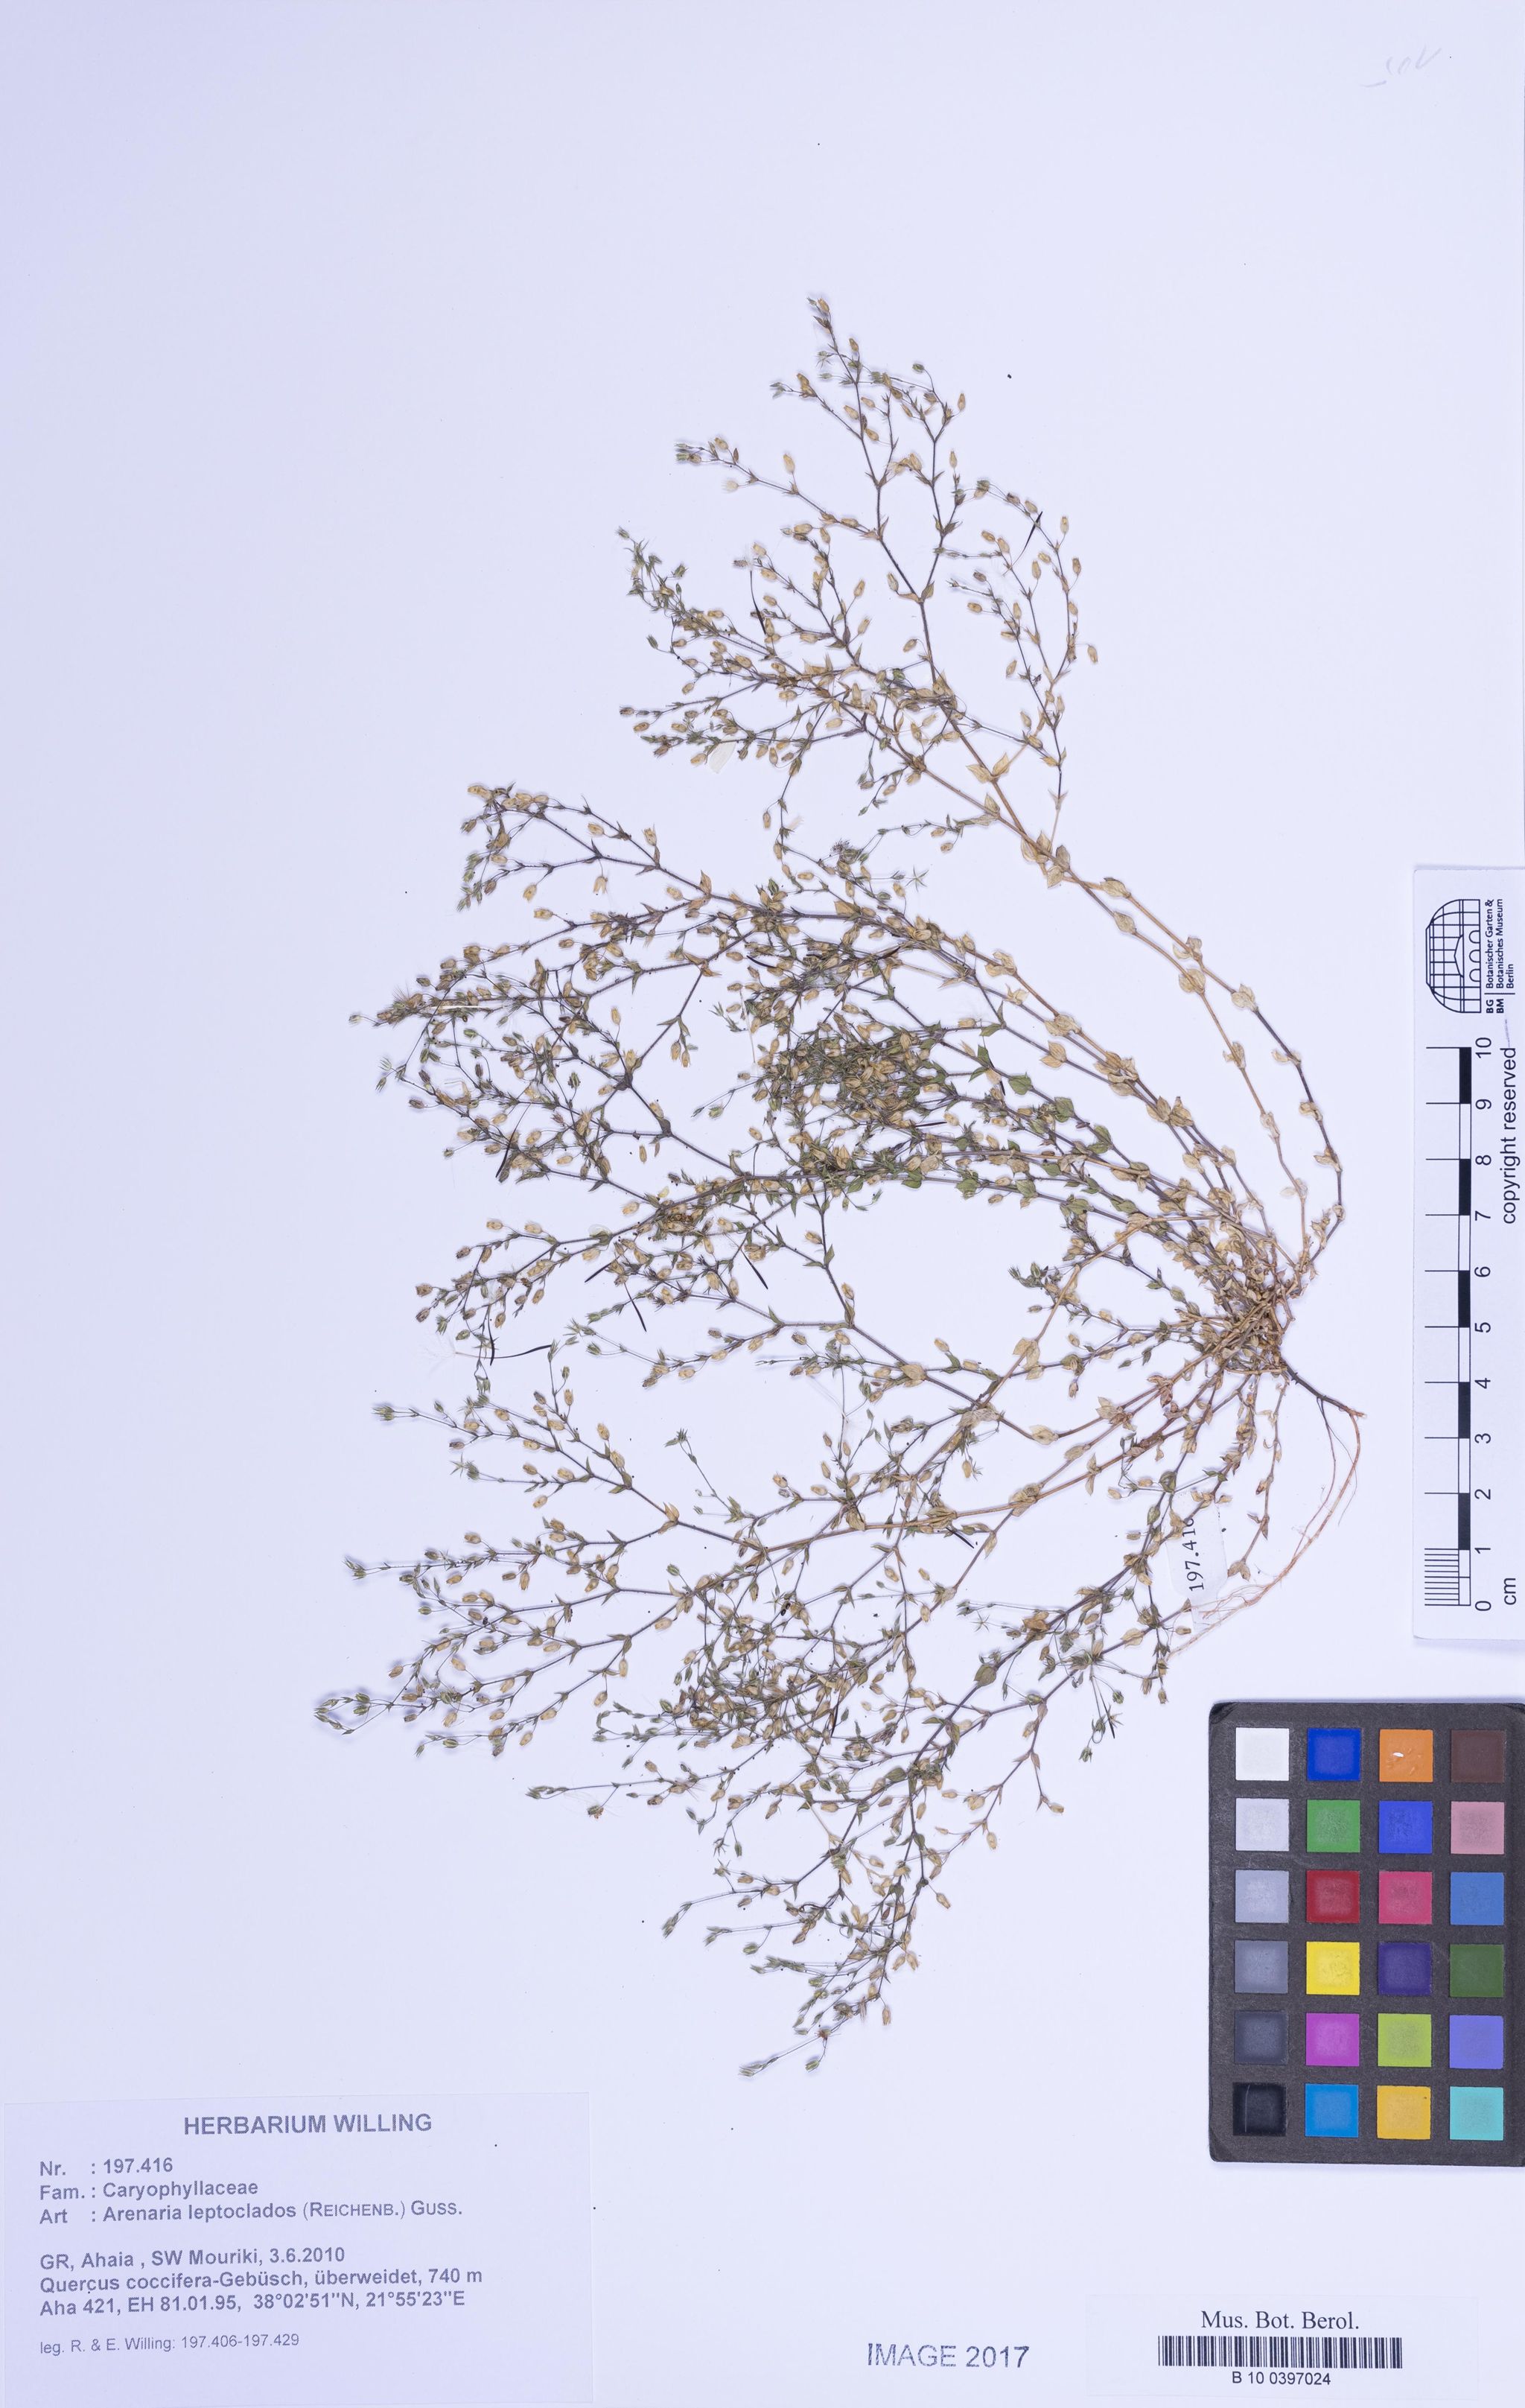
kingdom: Plantae
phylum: Tracheophyta
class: Magnoliopsida
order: Caryophyllales
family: Caryophyllaceae
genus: Arenaria
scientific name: Arenaria leptoclados
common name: Thyme-leaved sandwort
